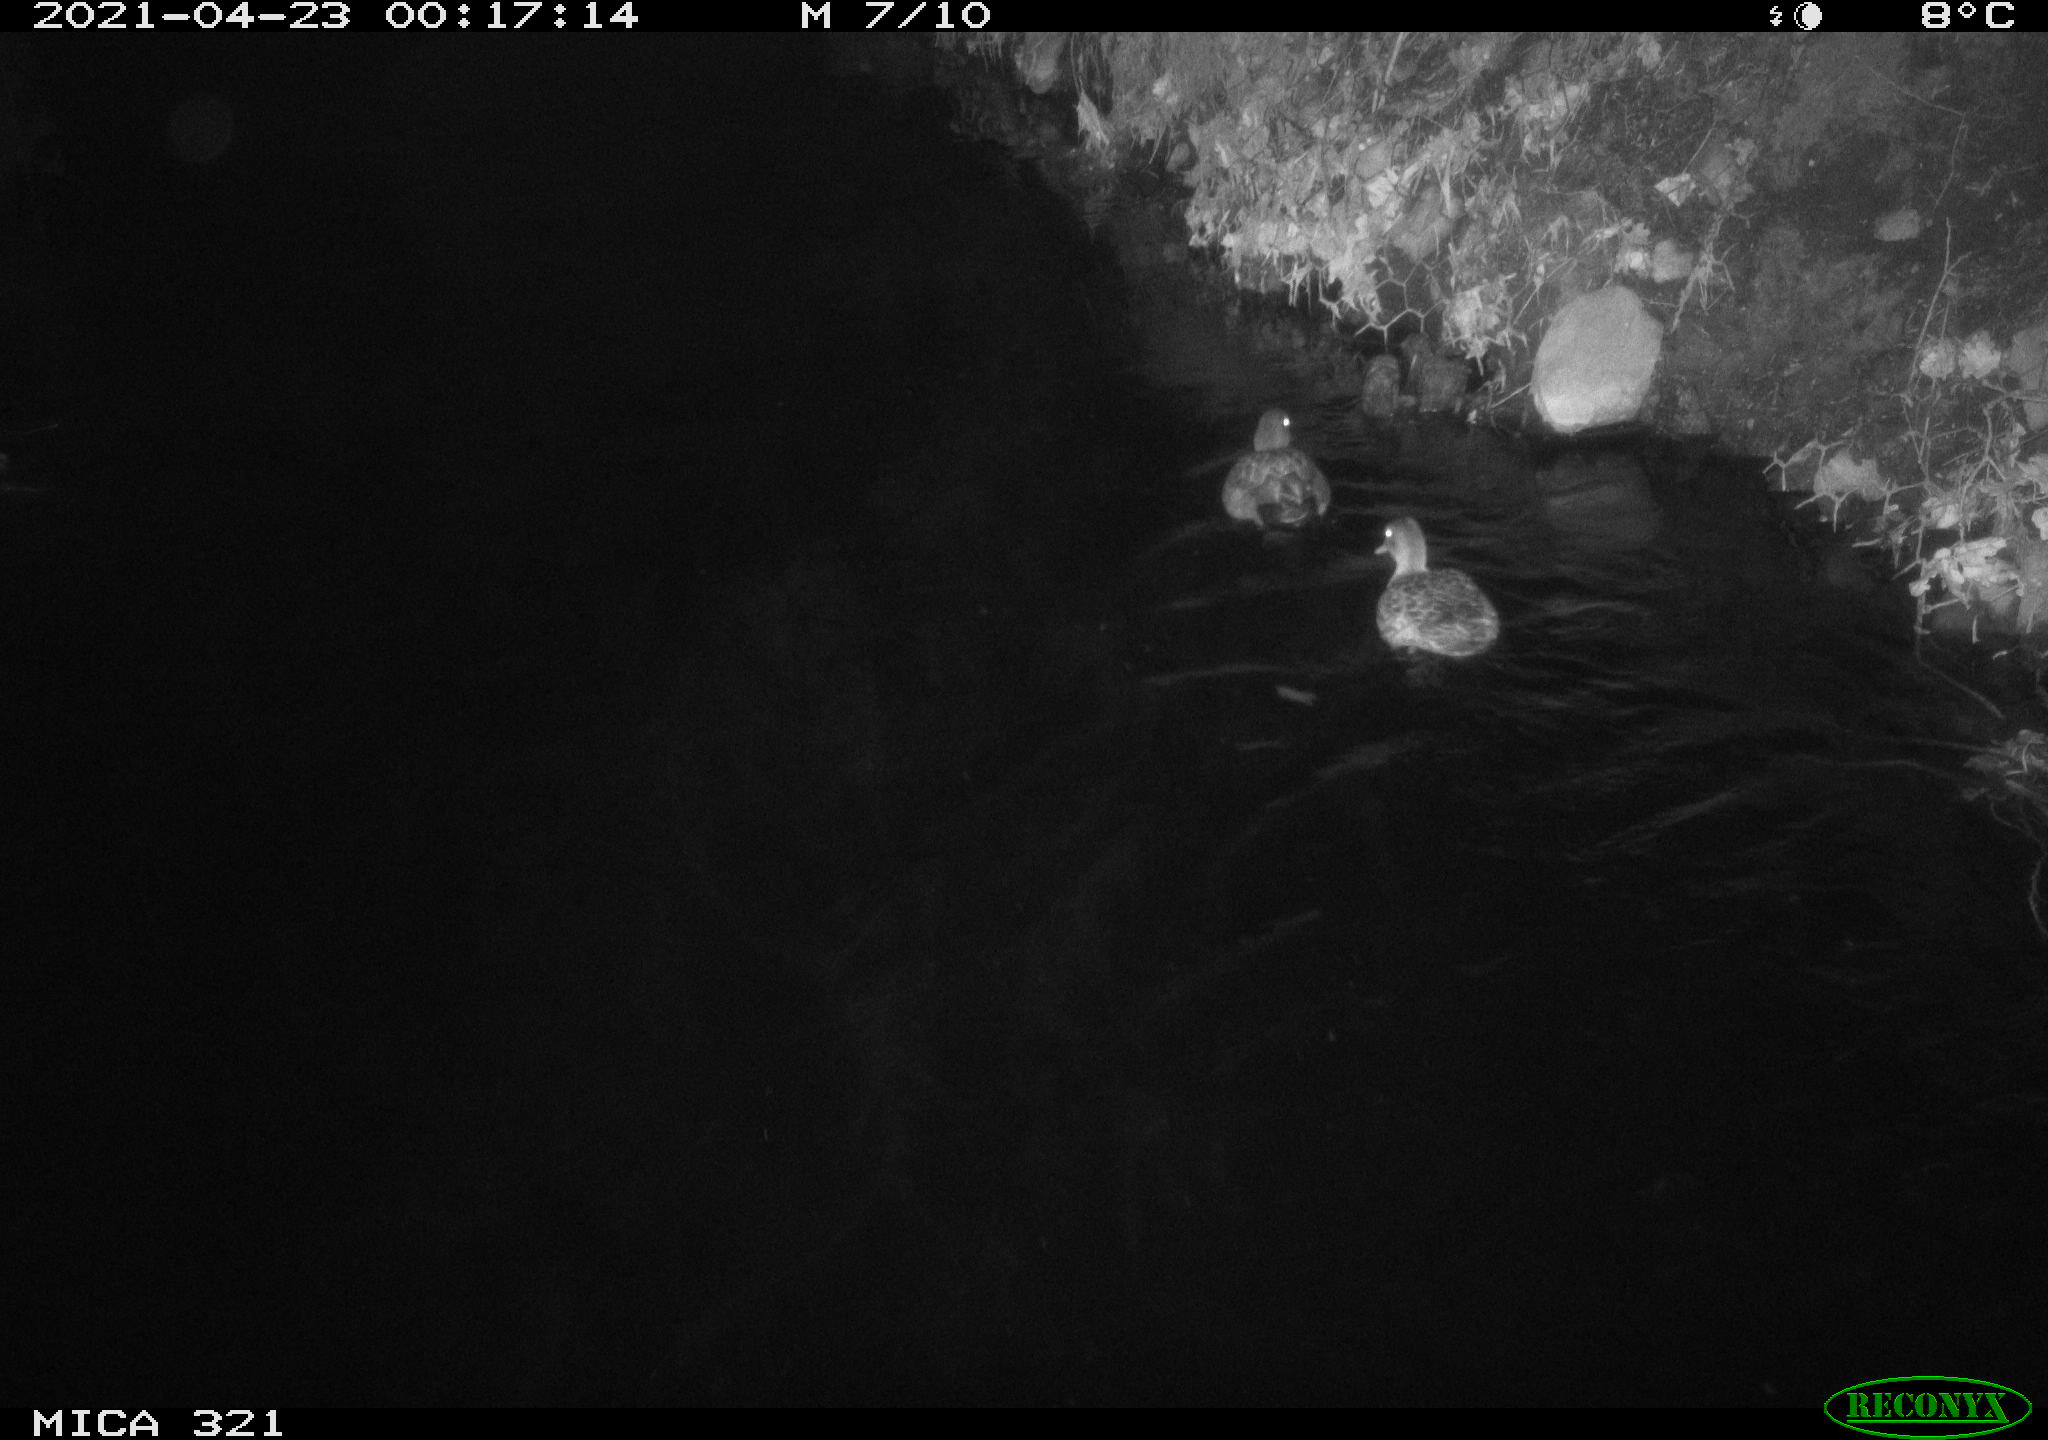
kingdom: Animalia
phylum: Chordata
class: Aves
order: Anseriformes
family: Anatidae
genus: Anas
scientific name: Anas
